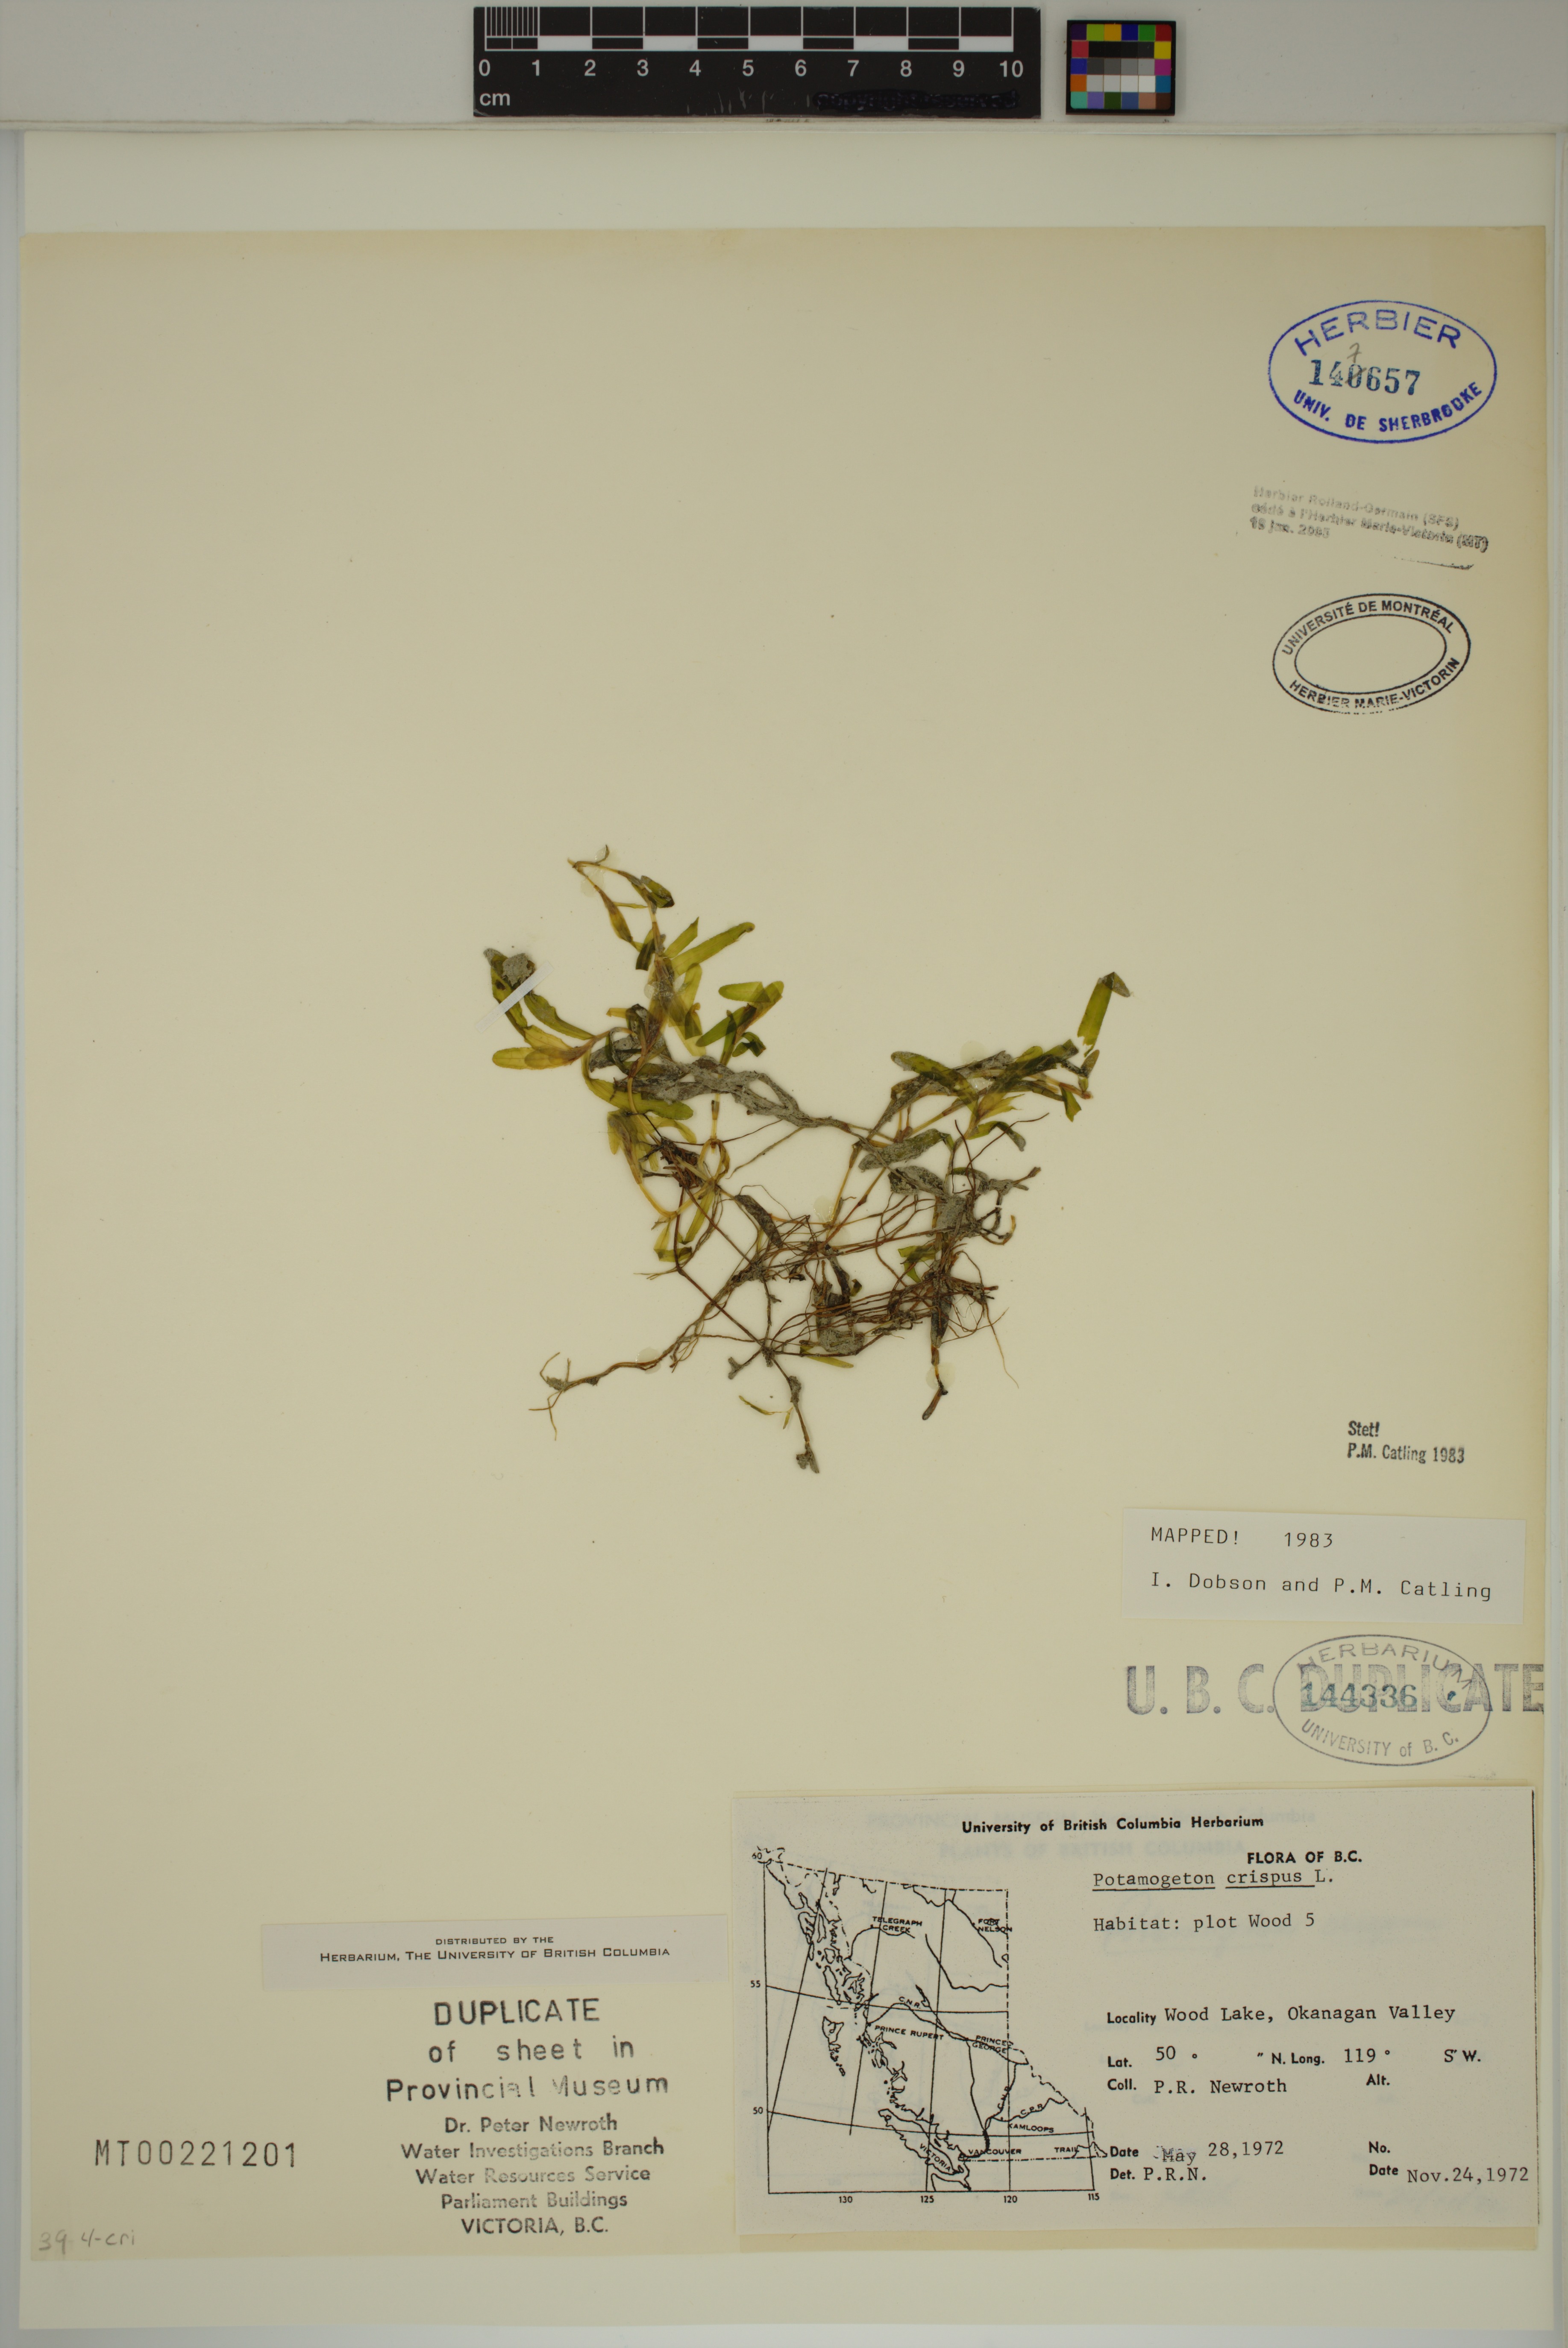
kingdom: Plantae
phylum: Tracheophyta
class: Liliopsida
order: Alismatales
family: Potamogetonaceae
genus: Potamogeton
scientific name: Potamogeton crispus
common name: Curled pondweed
